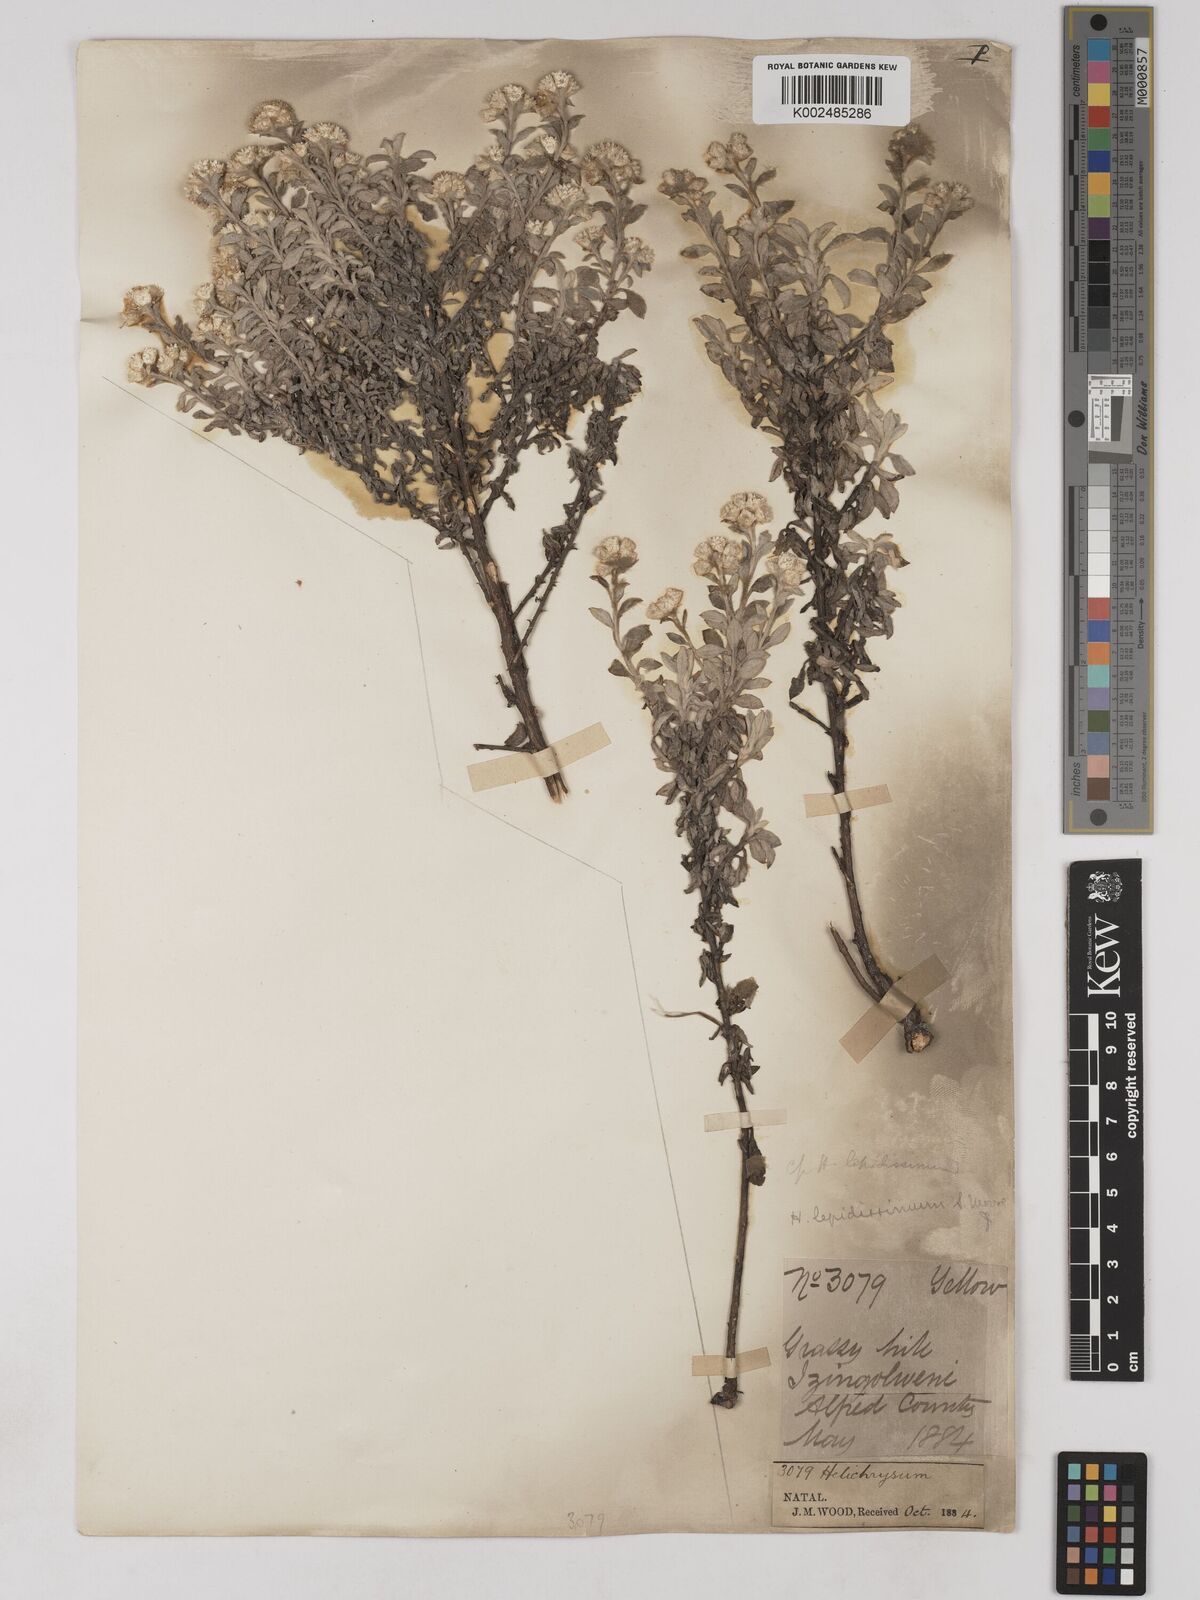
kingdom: Plantae
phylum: Tracheophyta
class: Magnoliopsida
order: Asterales
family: Asteraceae
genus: Helichrysum
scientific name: Helichrysum lepidissimum
